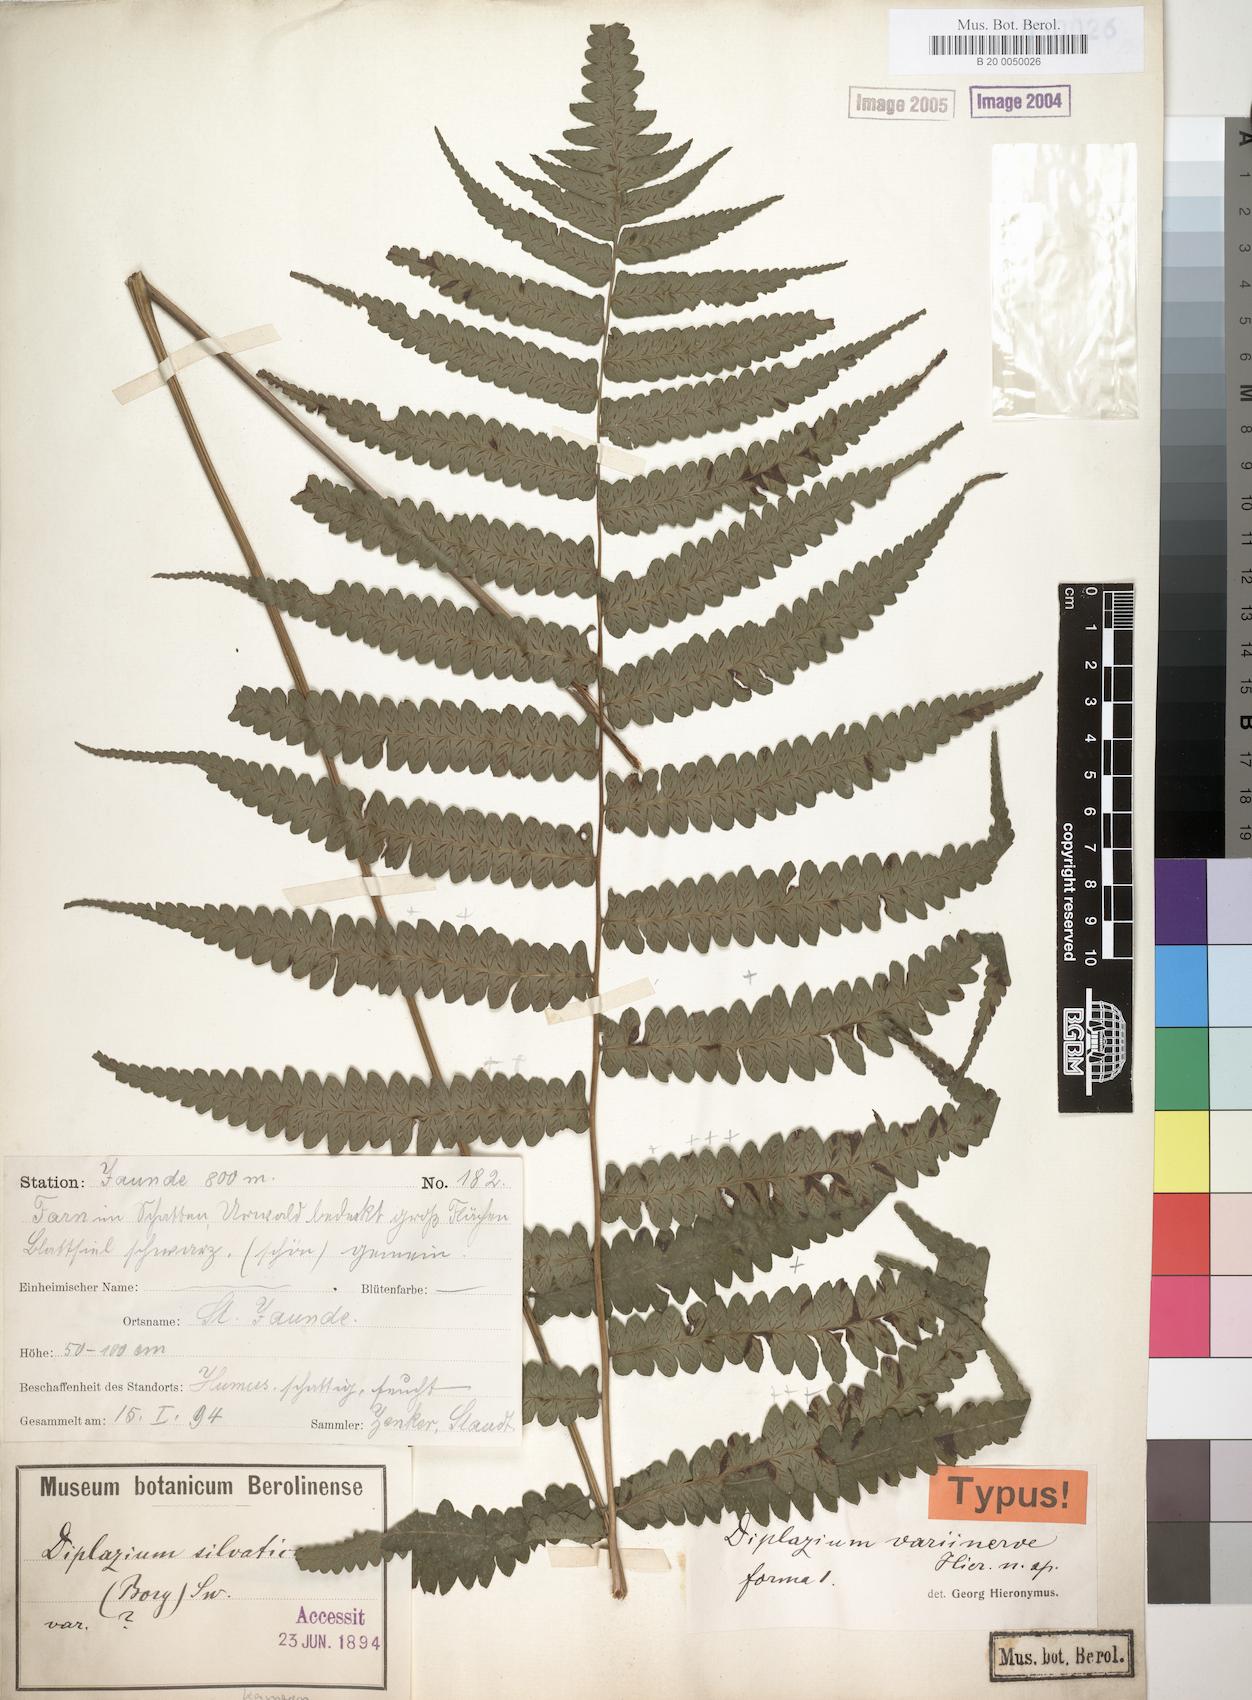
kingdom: Plantae
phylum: Tracheophyta
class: Polypodiopsida
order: Polypodiales
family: Athyriaceae
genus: Diplazium
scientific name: Diplazium welwitschii
